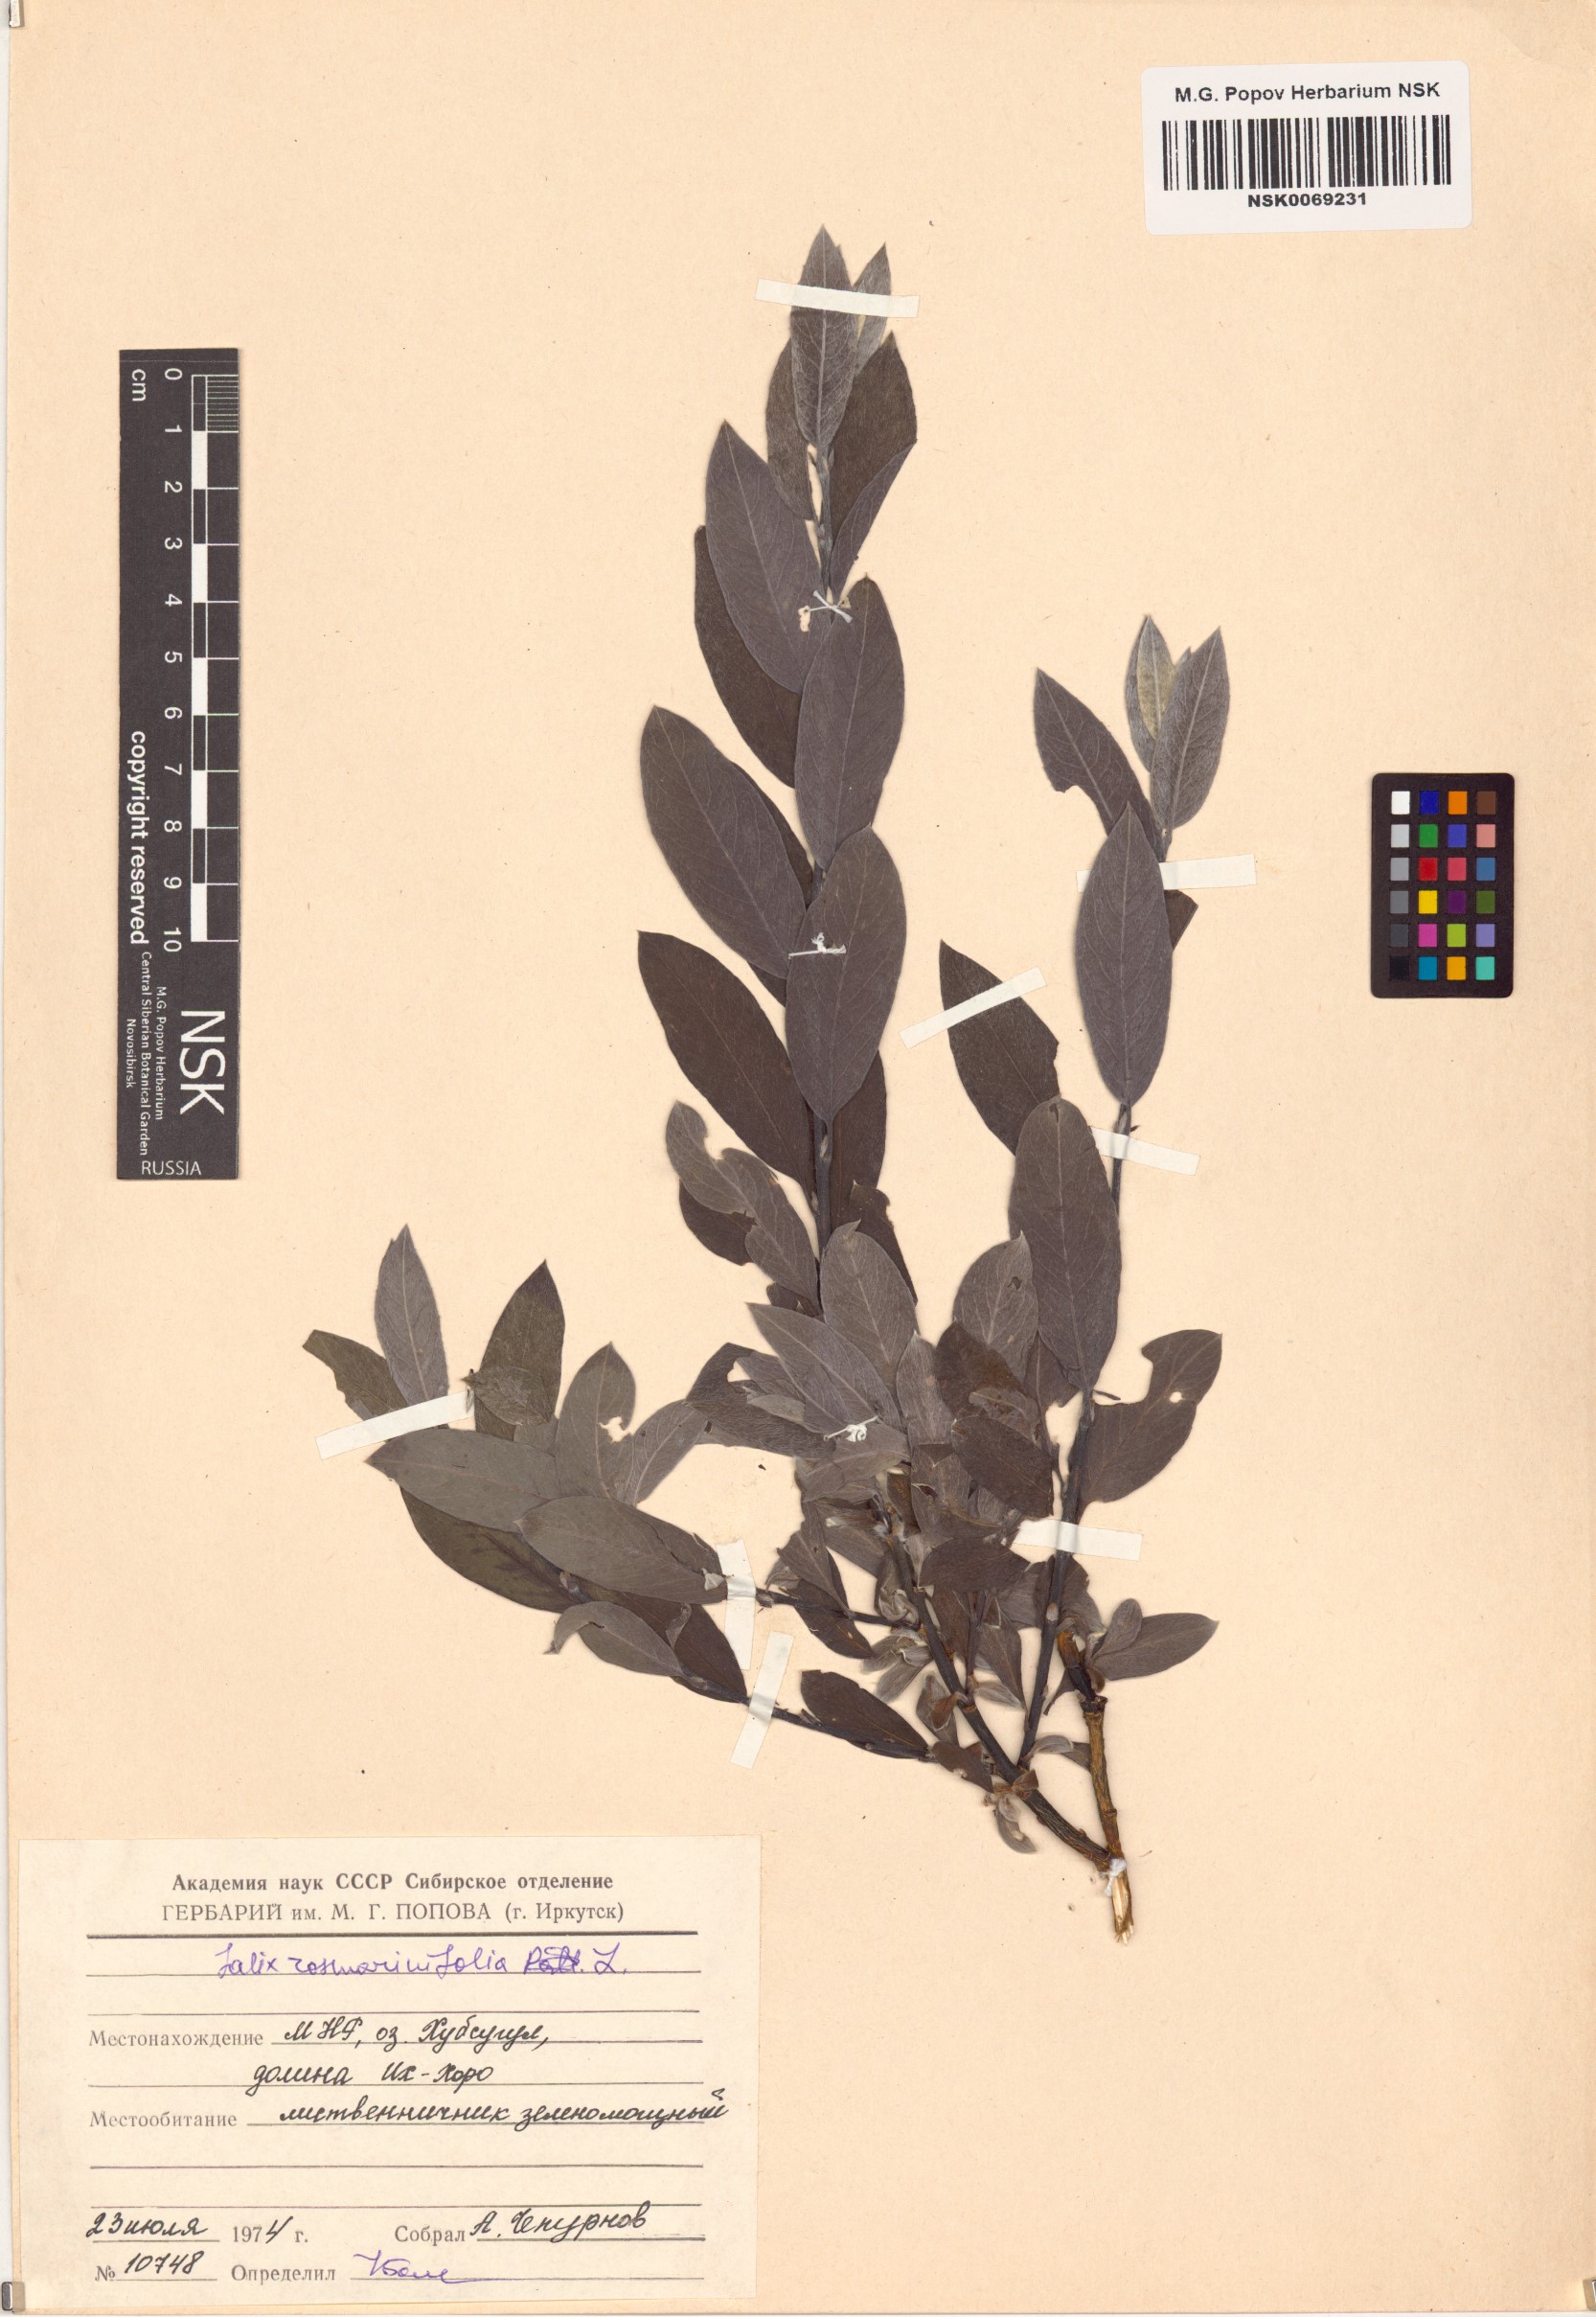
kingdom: Plantae
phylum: Tracheophyta
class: Magnoliopsida
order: Malpighiales
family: Salicaceae
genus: Salix
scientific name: Salix rosmarinifolia
